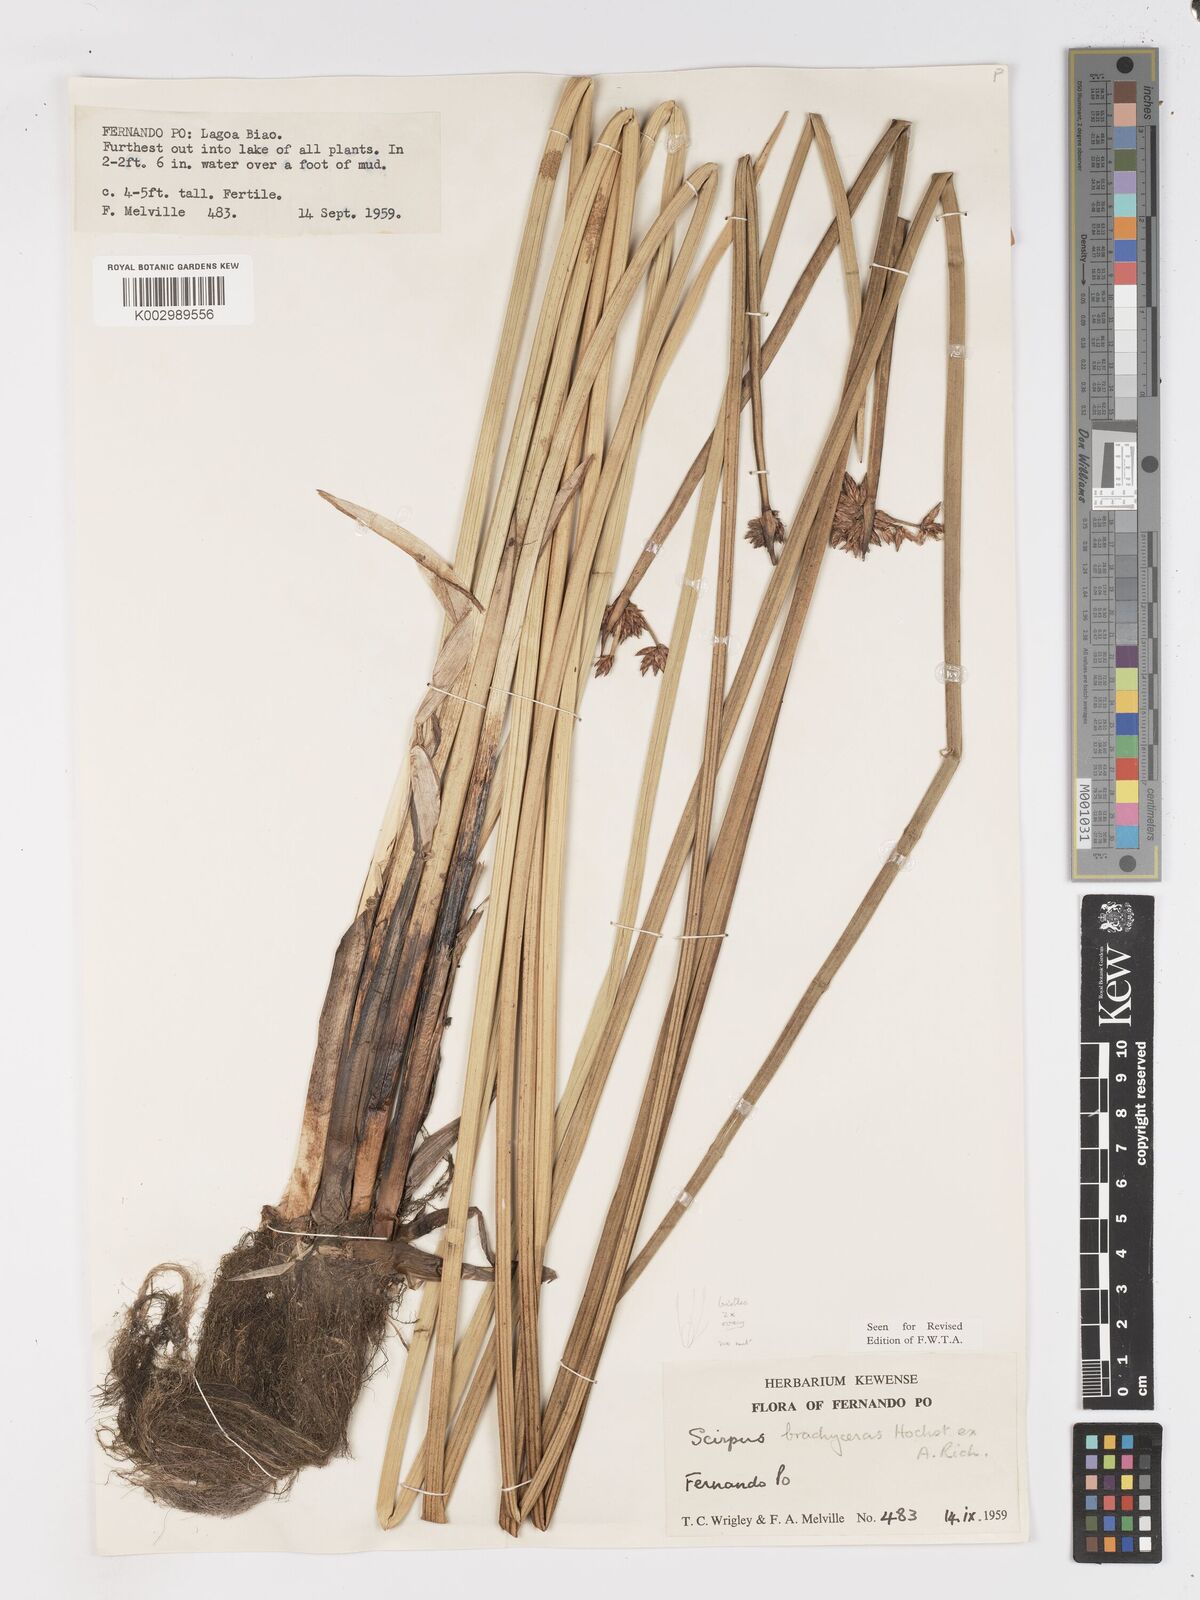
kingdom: Plantae
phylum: Tracheophyta
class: Liliopsida
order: Poales
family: Cyperaceae
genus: Schoenoplectiella
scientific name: Schoenoplectiella corymbosa
